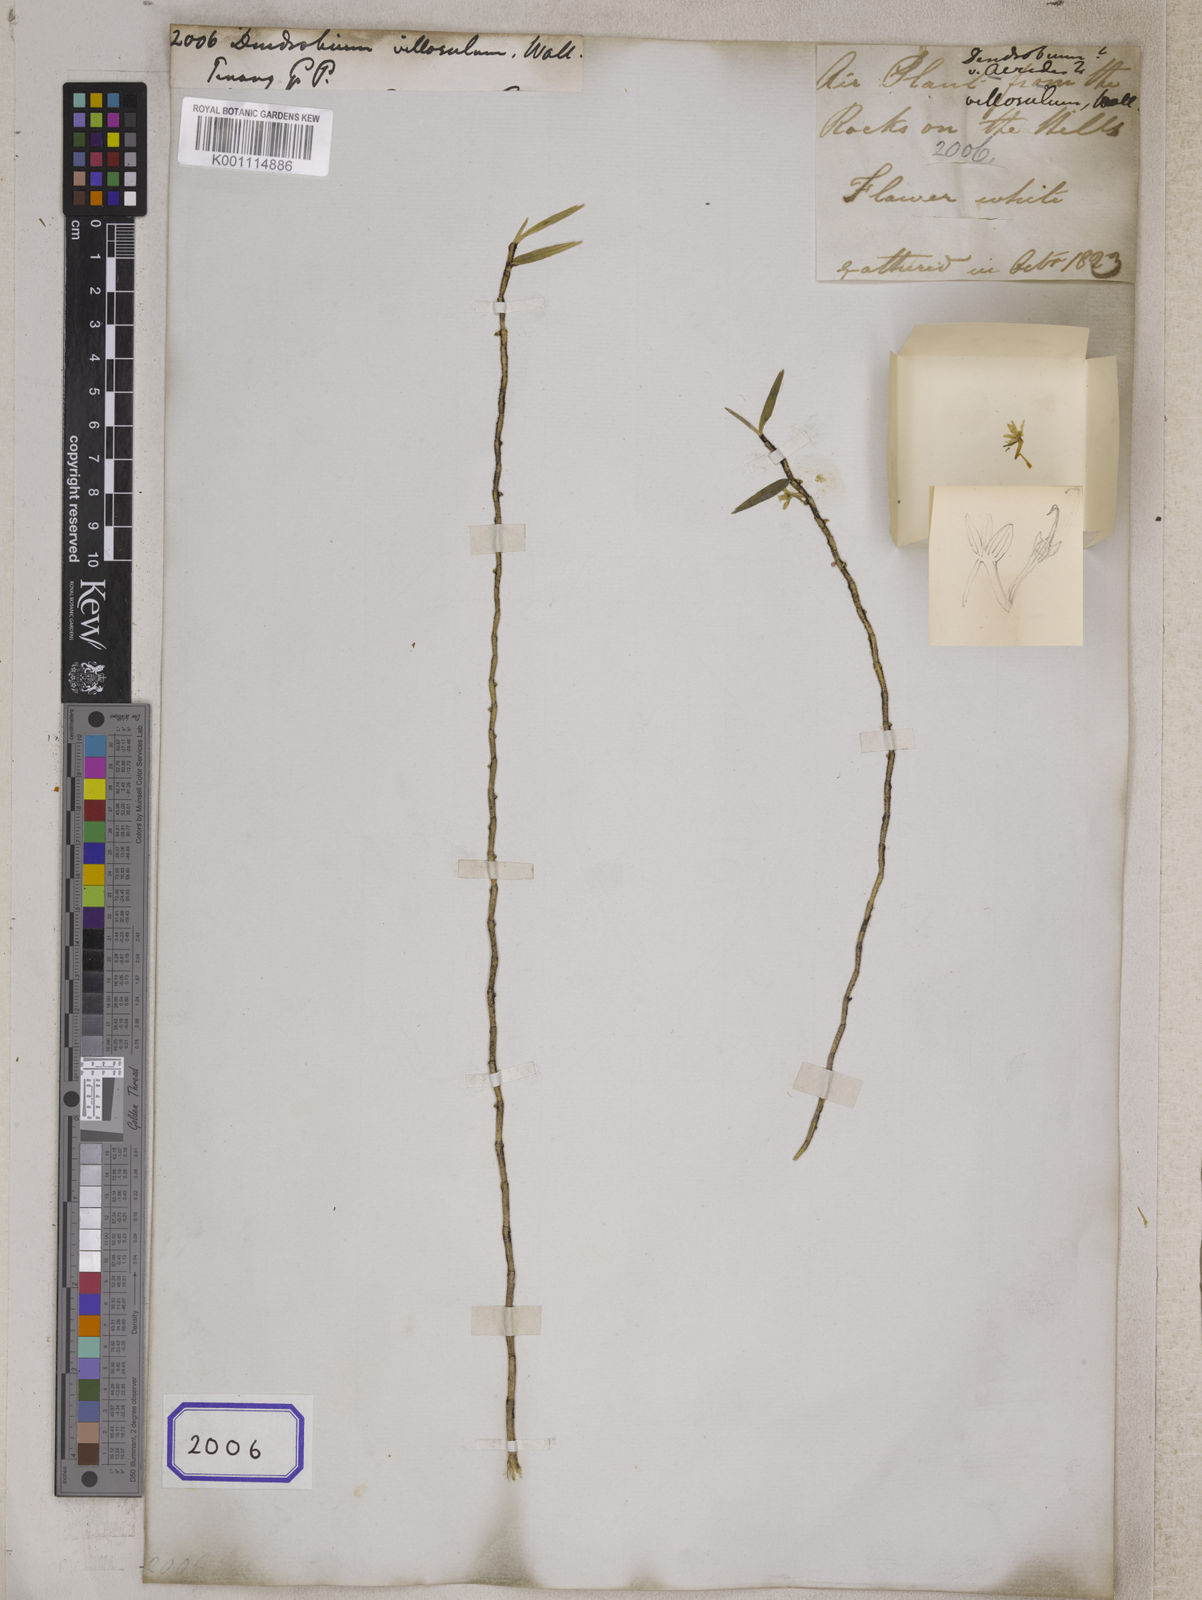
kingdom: Plantae
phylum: Tracheophyta
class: Liliopsida
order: Asparagales
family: Orchidaceae
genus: Dendrobium
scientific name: Dendrobium
